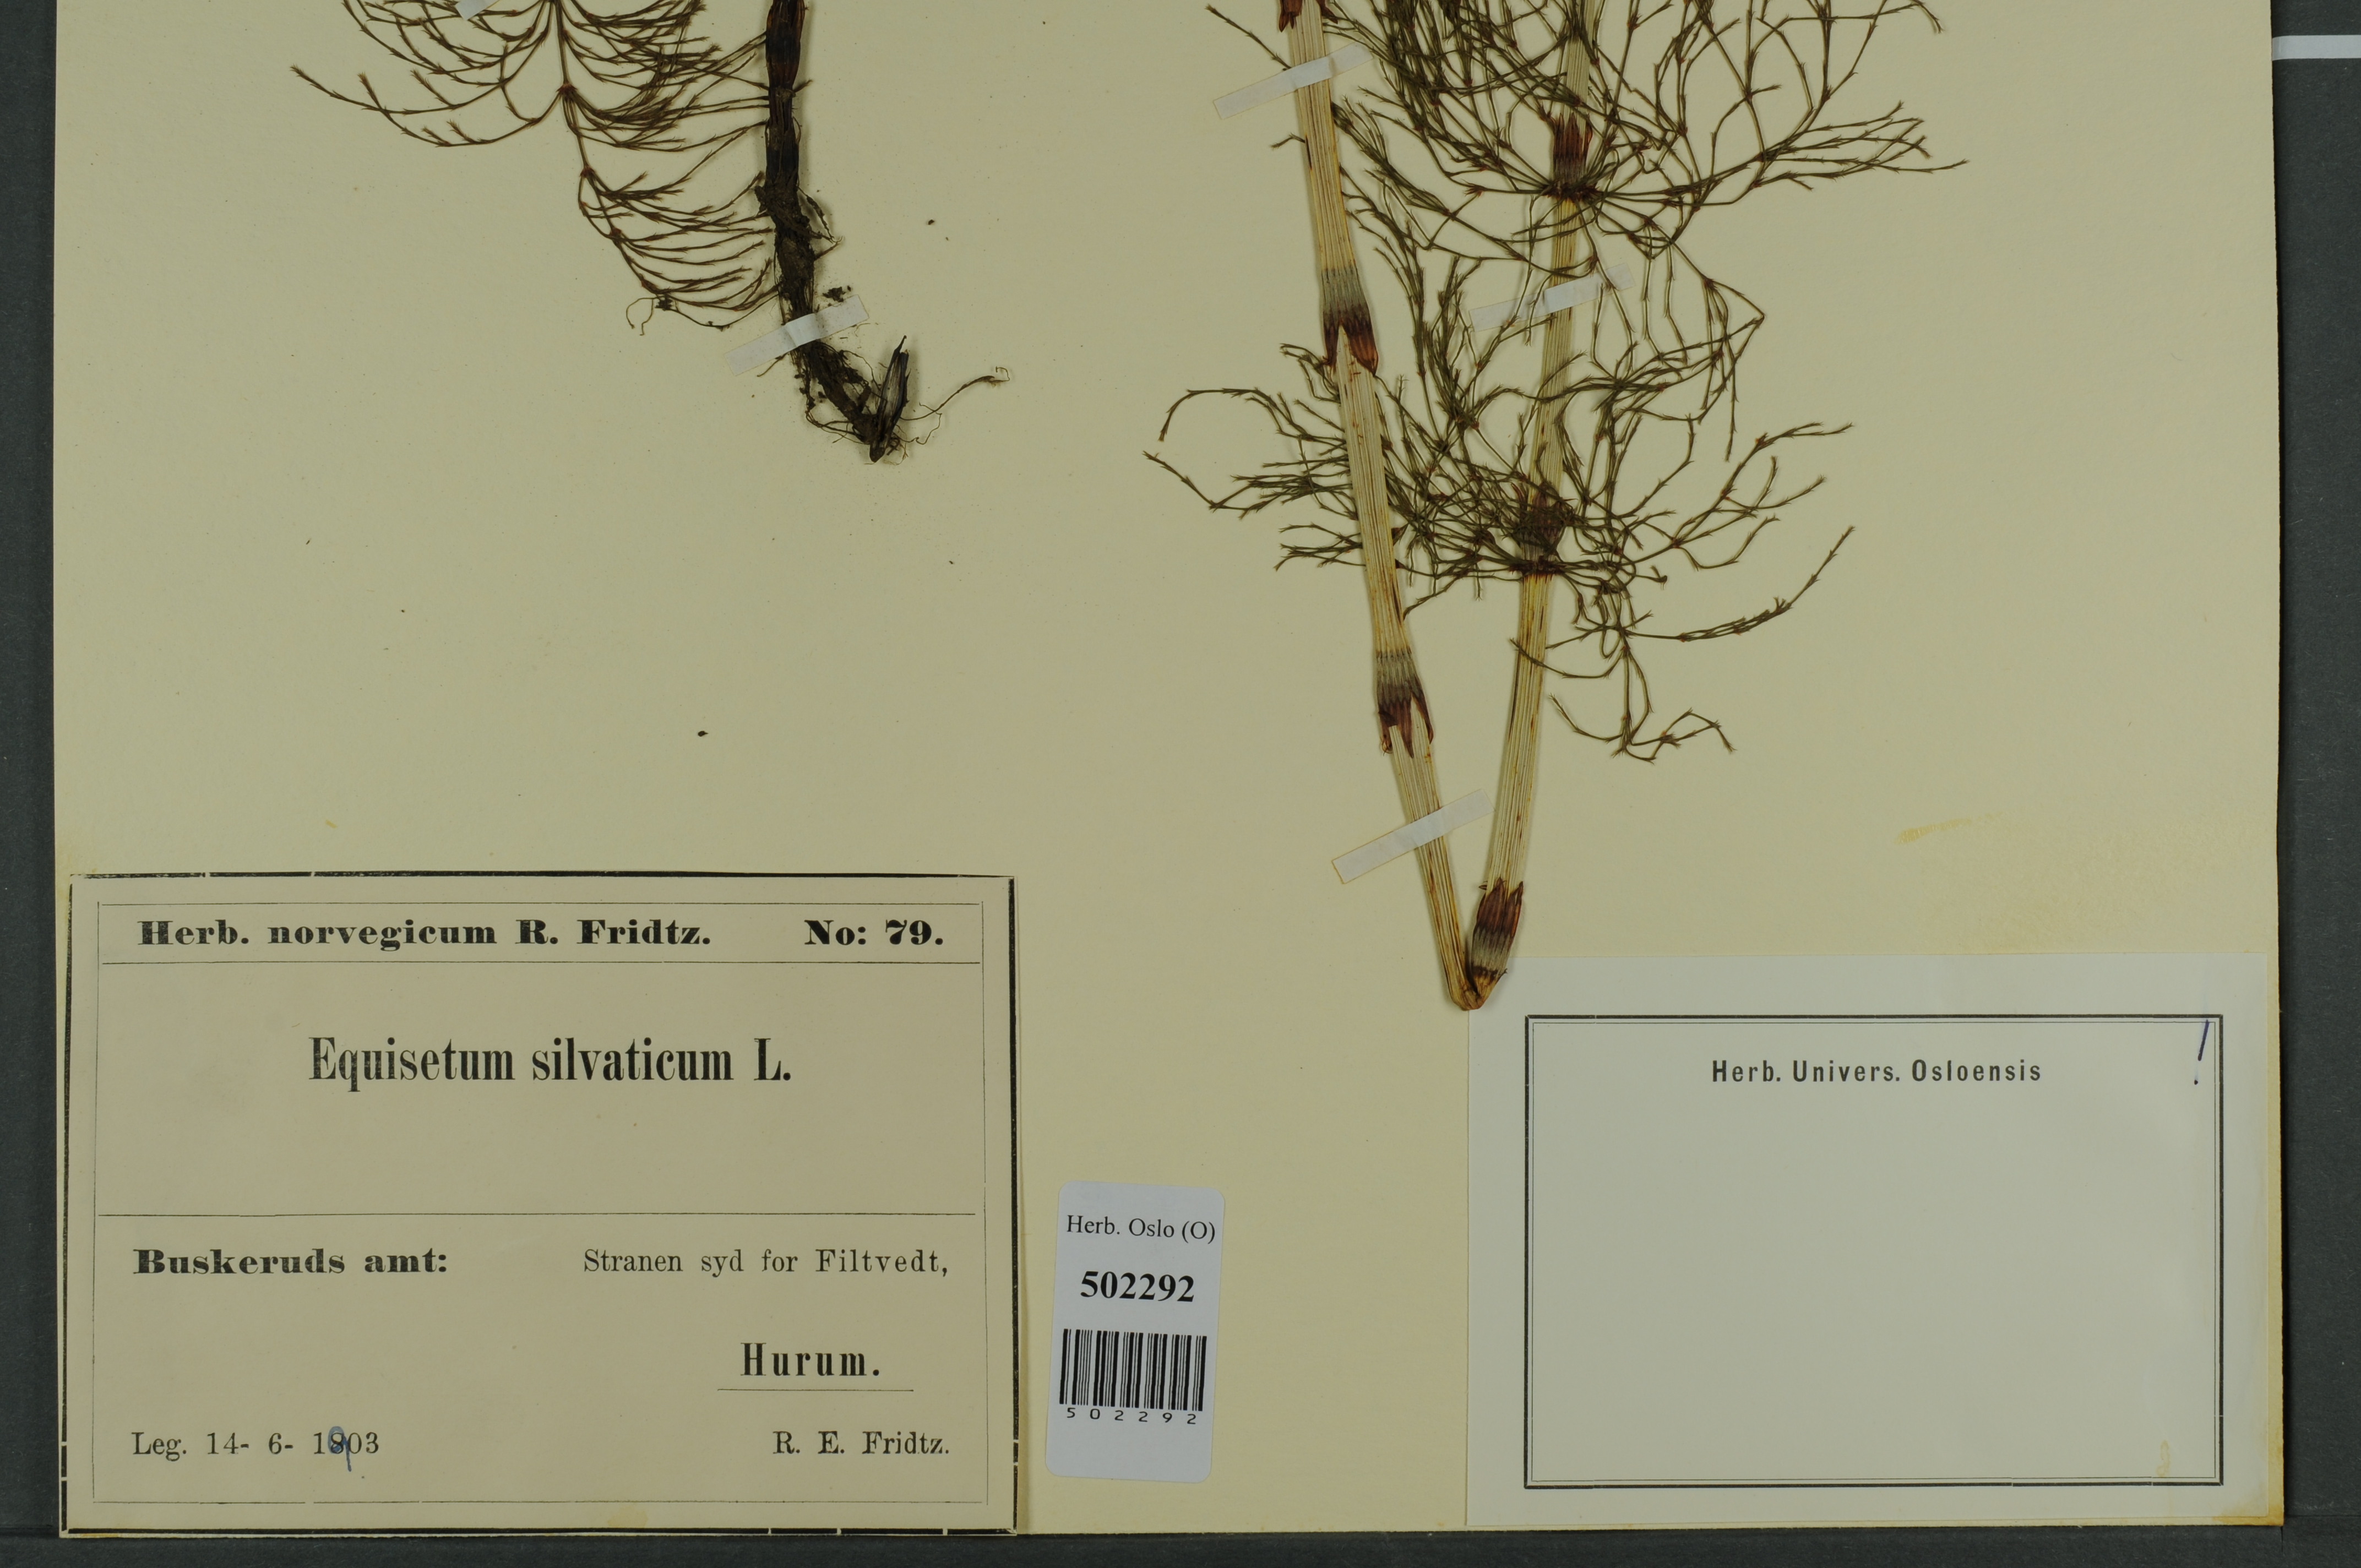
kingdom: Plantae
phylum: Tracheophyta
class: Polypodiopsida
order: Equisetales
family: Equisetaceae
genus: Equisetum
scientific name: Equisetum sylvaticum
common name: Wood horsetail
